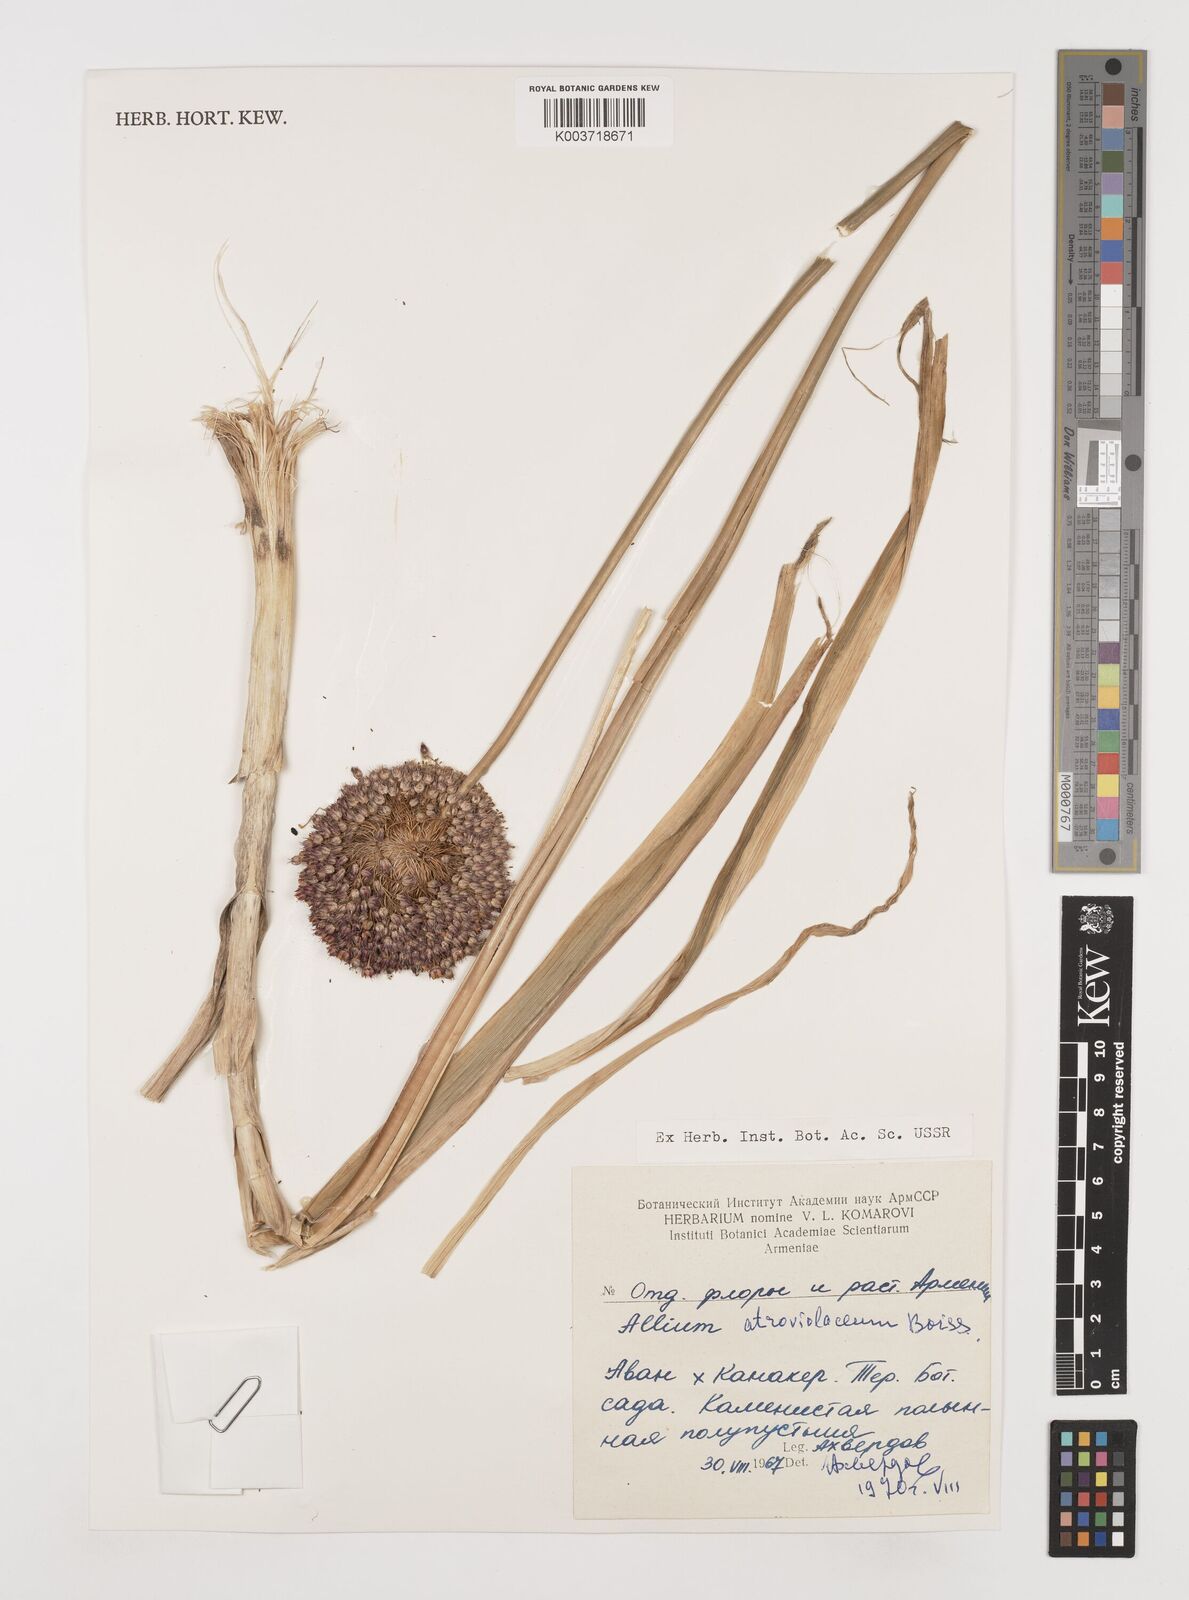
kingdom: Plantae
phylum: Tracheophyta
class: Liliopsida
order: Asparagales
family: Amaryllidaceae
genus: Allium
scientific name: Allium atroviolaceum
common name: Broadleaf wild leek
